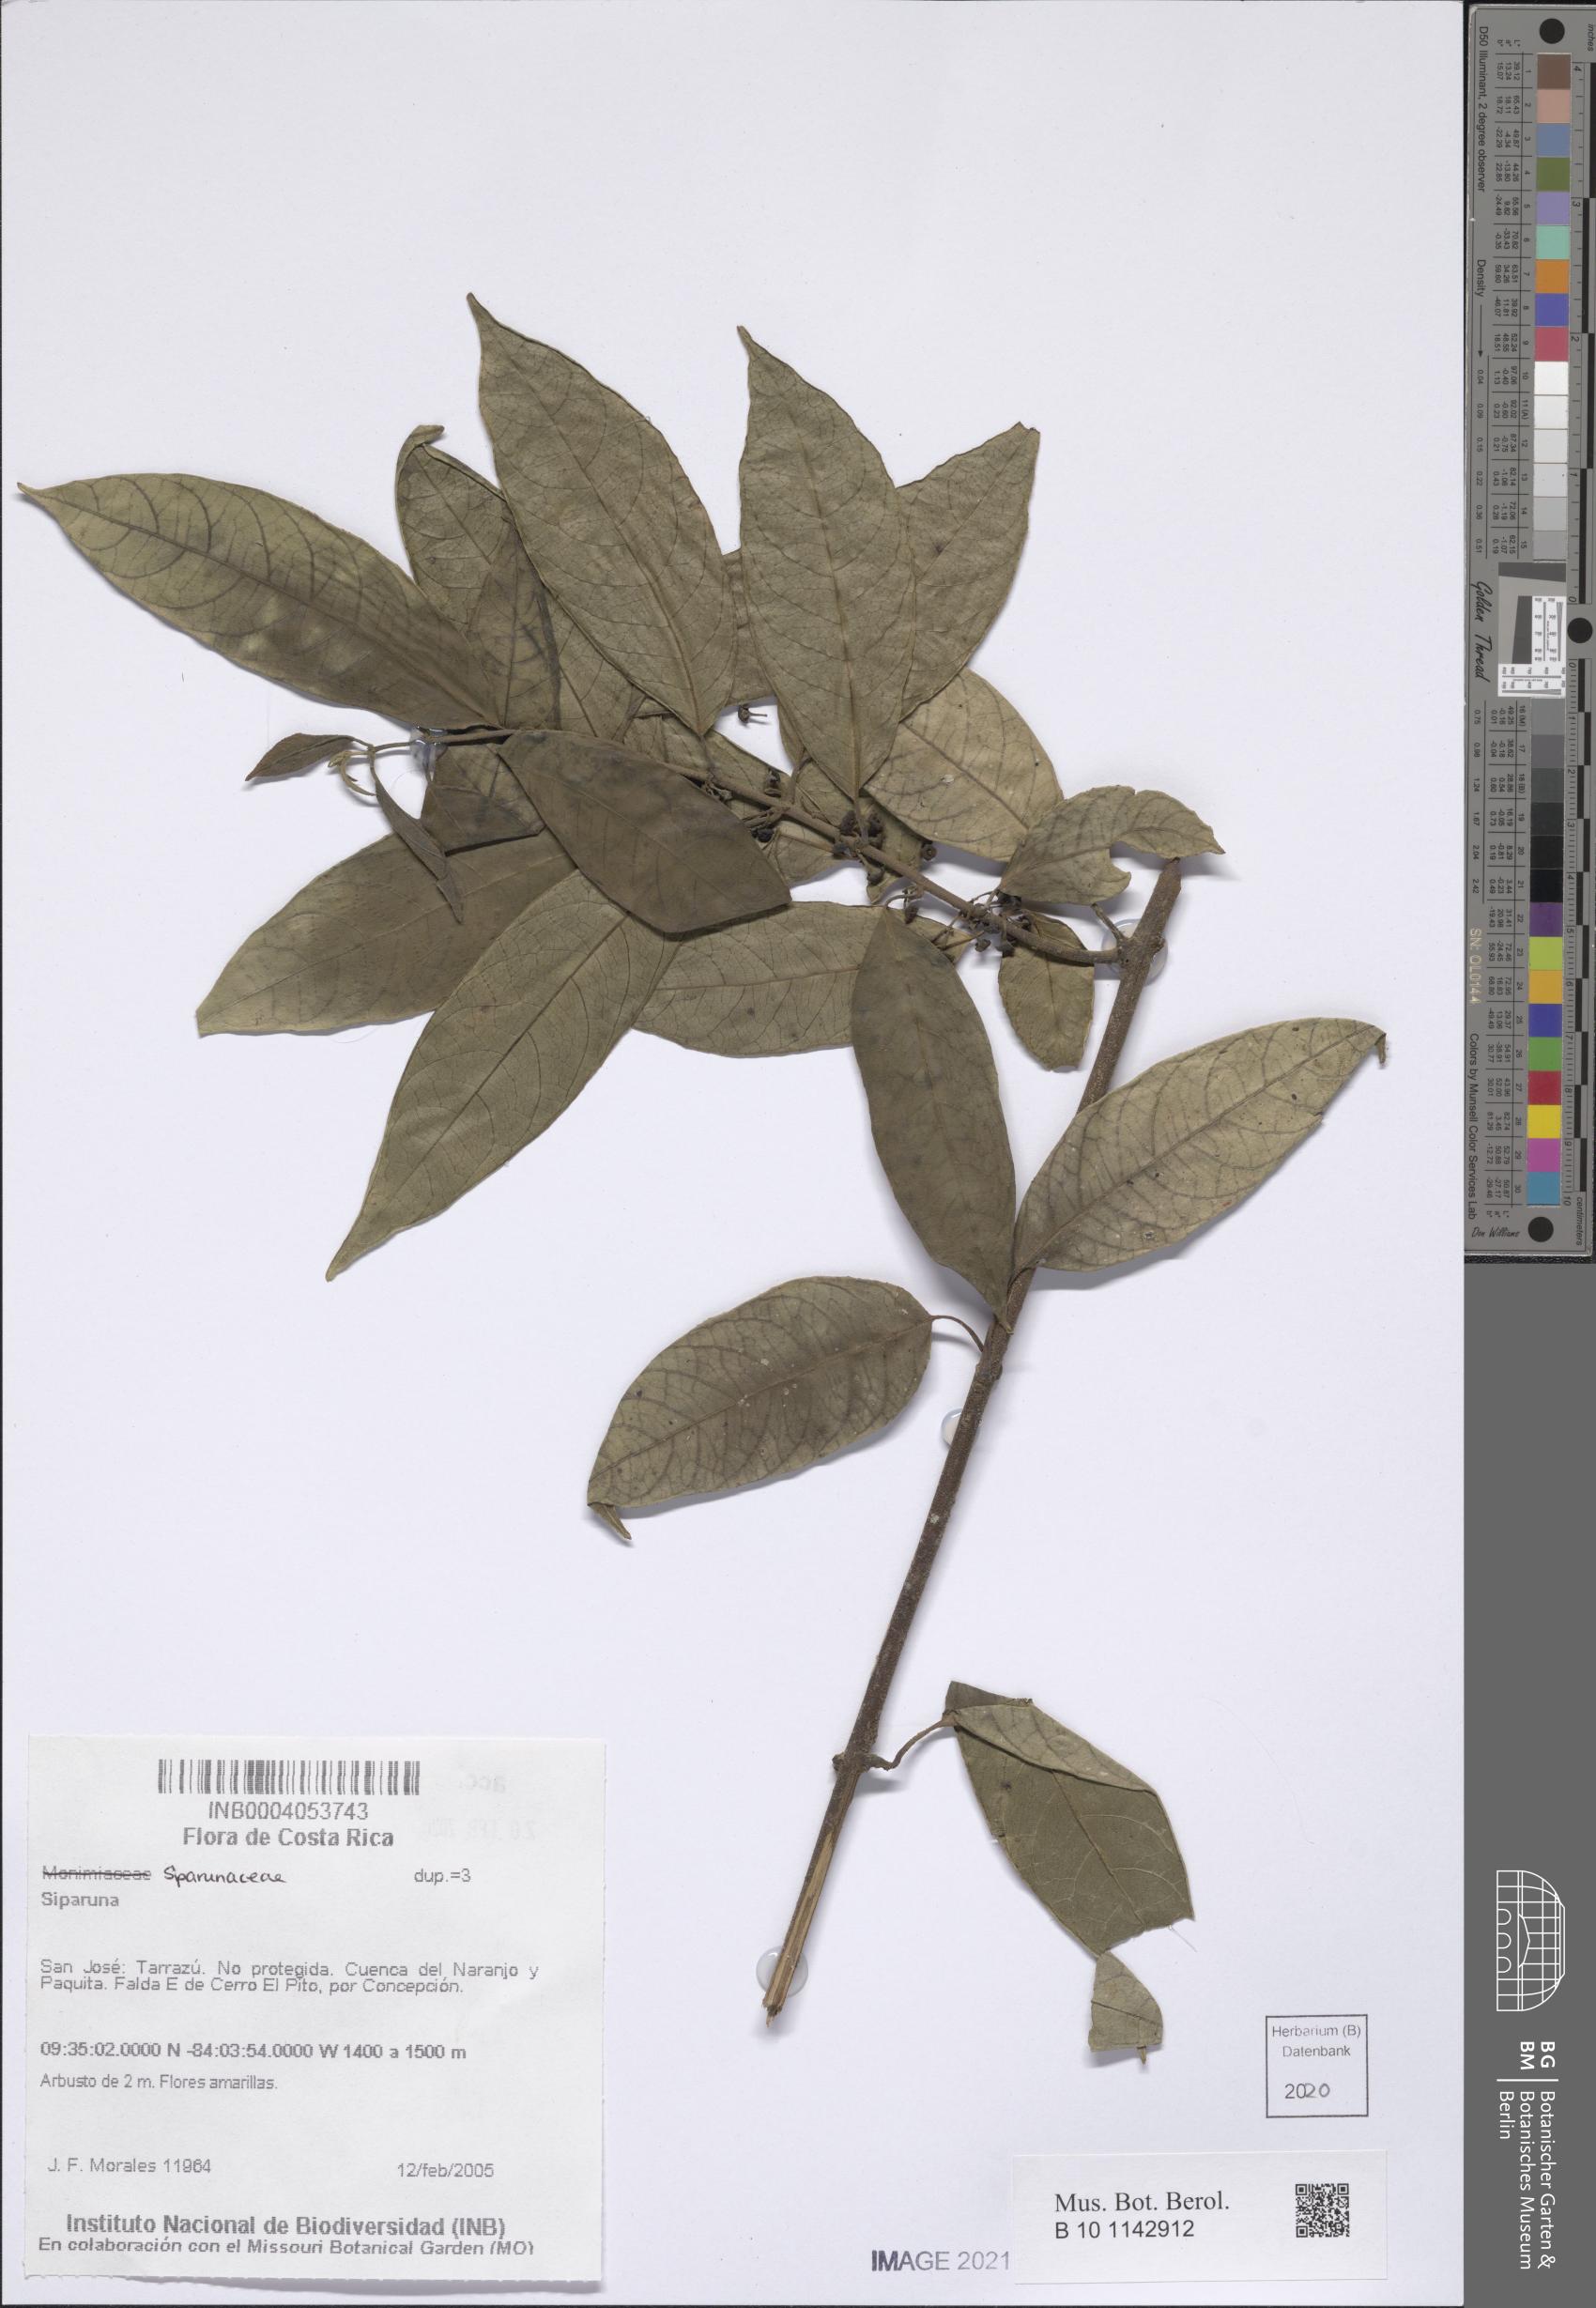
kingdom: Plantae
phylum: Tracheophyta
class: Magnoliopsida
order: Laurales
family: Siparunaceae
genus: Siparuna
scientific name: Siparuna
